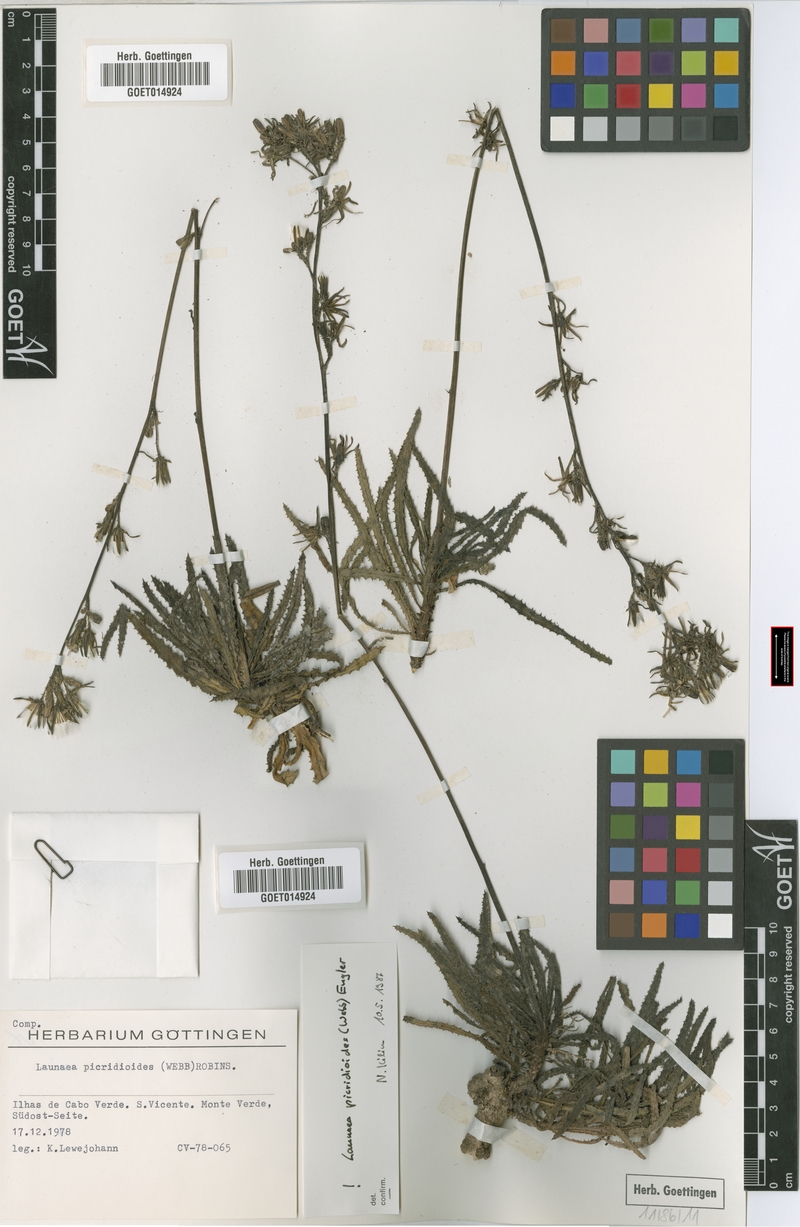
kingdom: Plantae
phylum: Tracheophyta
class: Magnoliopsida
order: Asterales
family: Asteraceae
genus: Launaea
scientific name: Launaea picridioides
